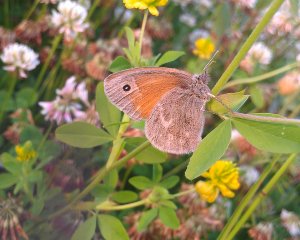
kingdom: Animalia
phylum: Arthropoda
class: Insecta
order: Lepidoptera
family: Nymphalidae
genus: Coenonympha
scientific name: Coenonympha tullia
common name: Large Heath
